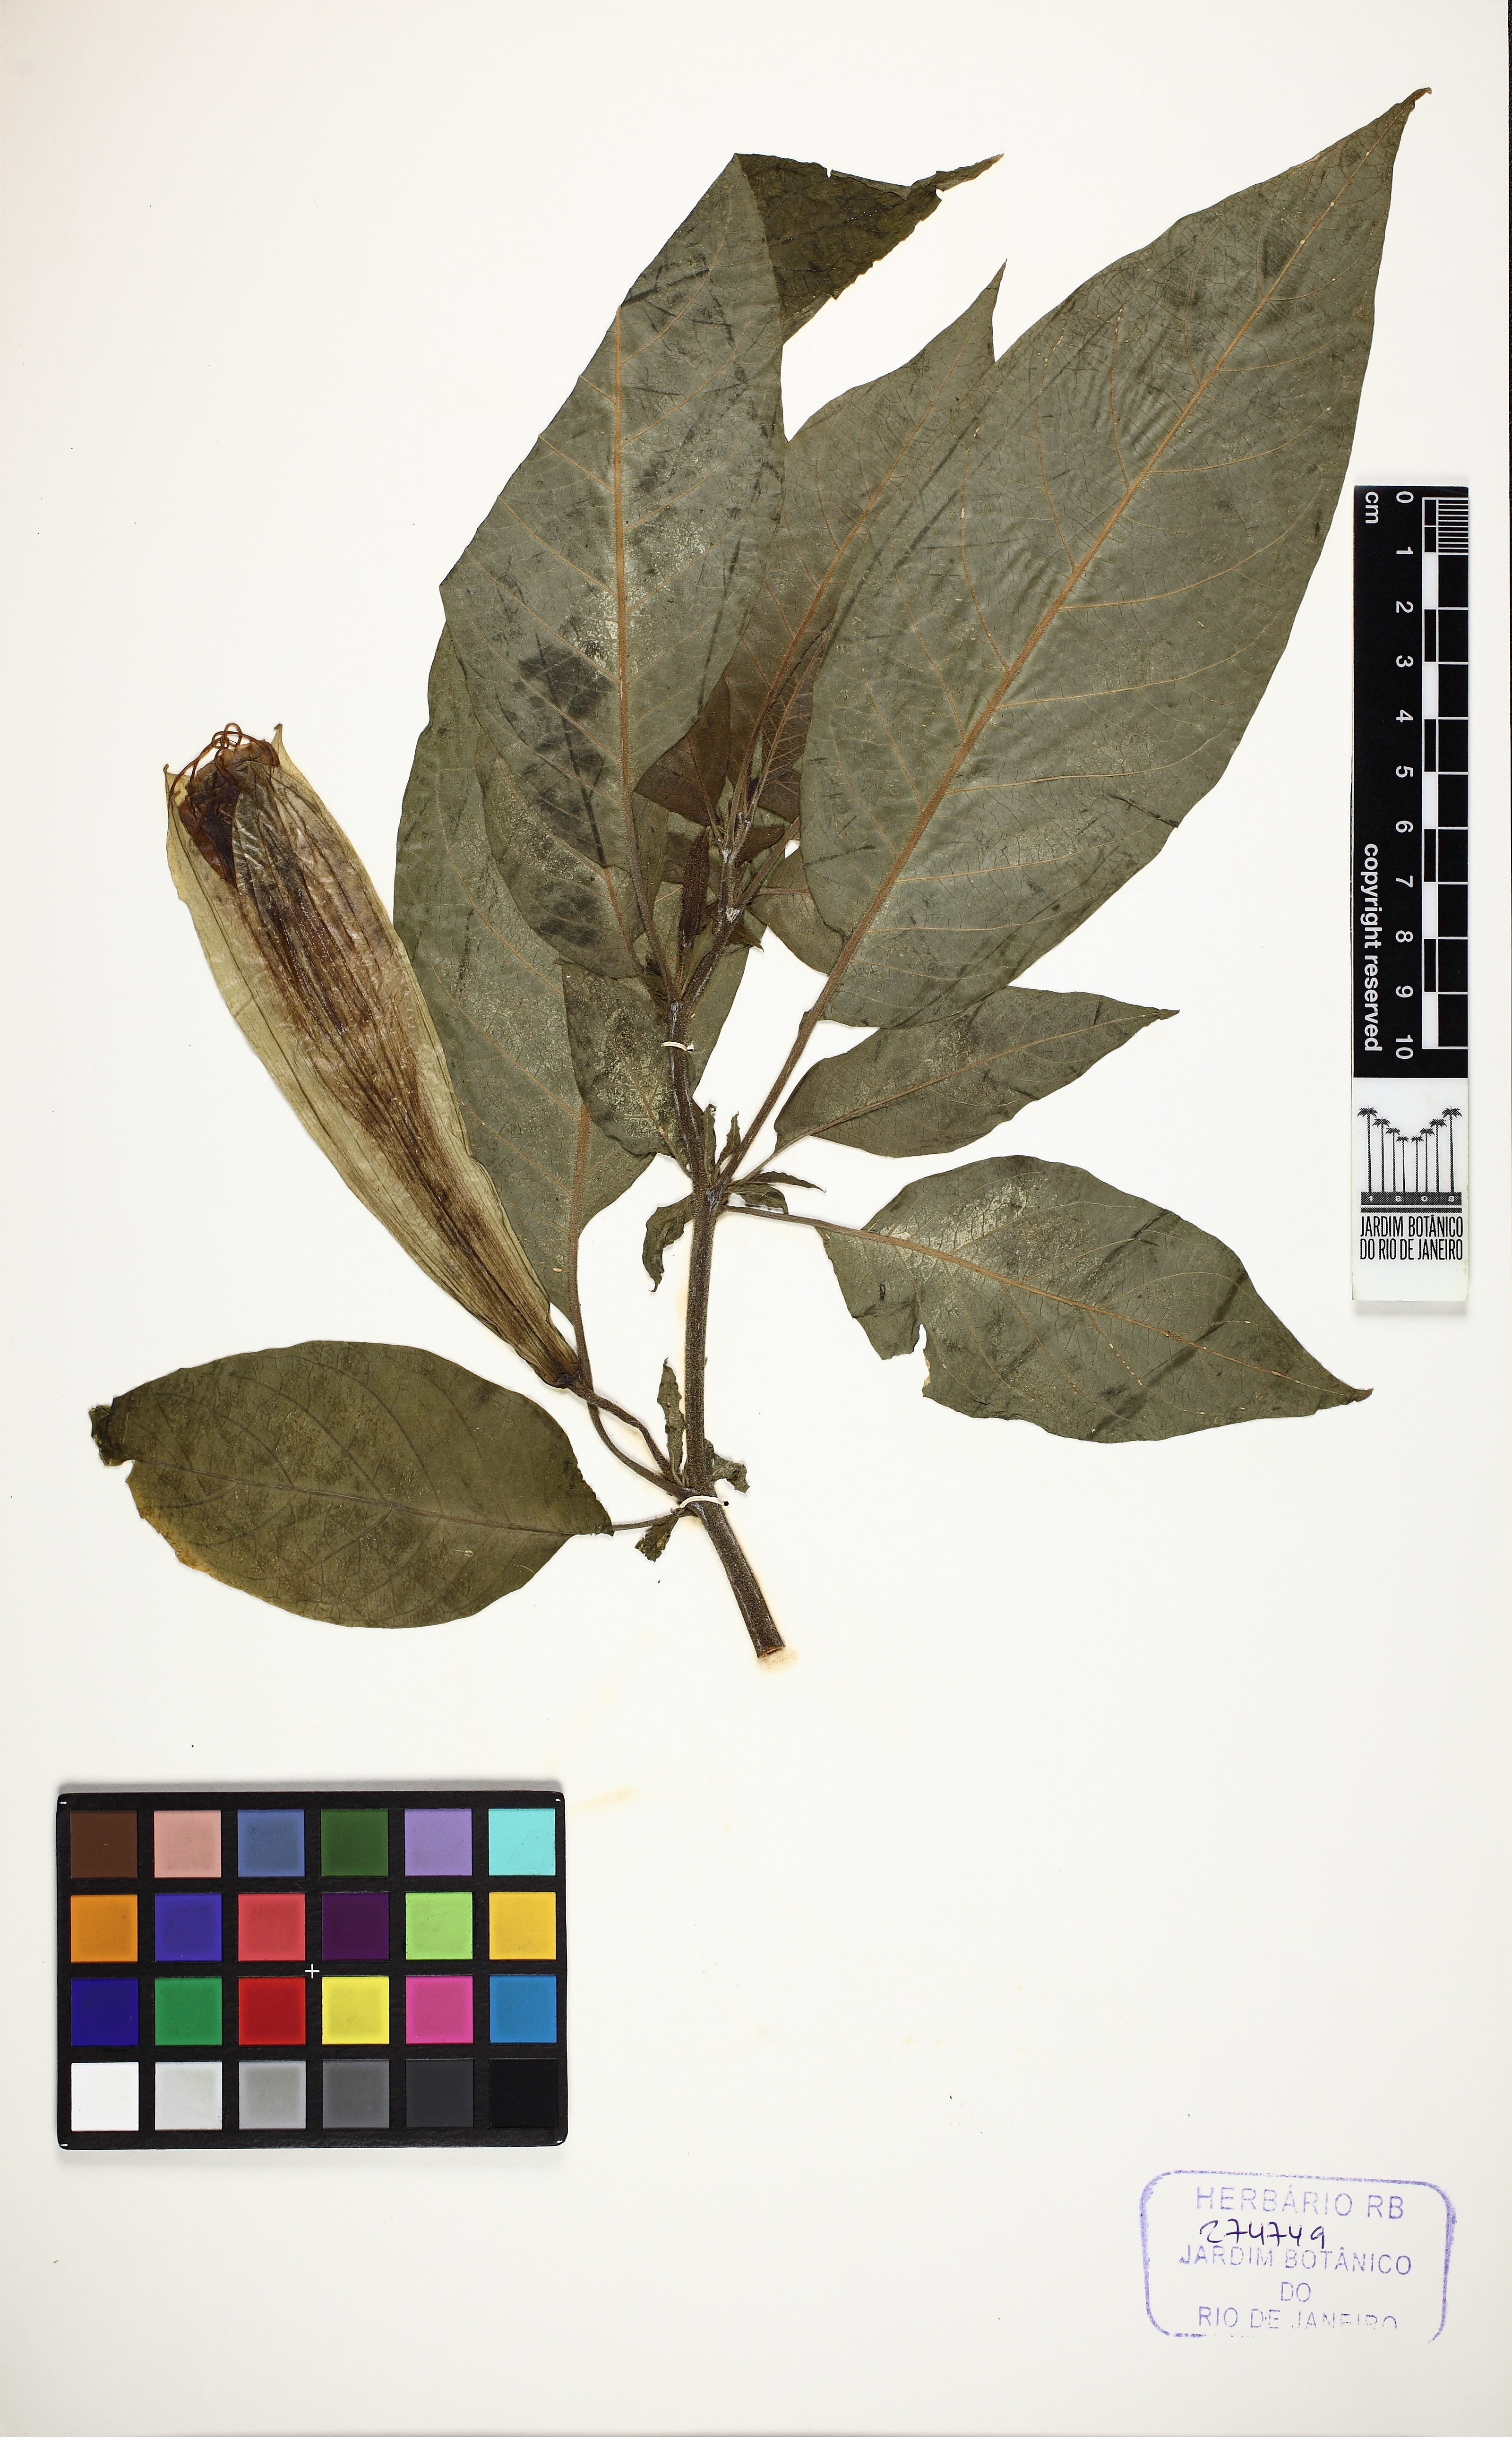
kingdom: Plantae
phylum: Tracheophyta
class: Magnoliopsida
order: Solanales
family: Solanaceae
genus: Brugmansia
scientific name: Brugmansia insignis
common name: Pink angel's-trumpet
